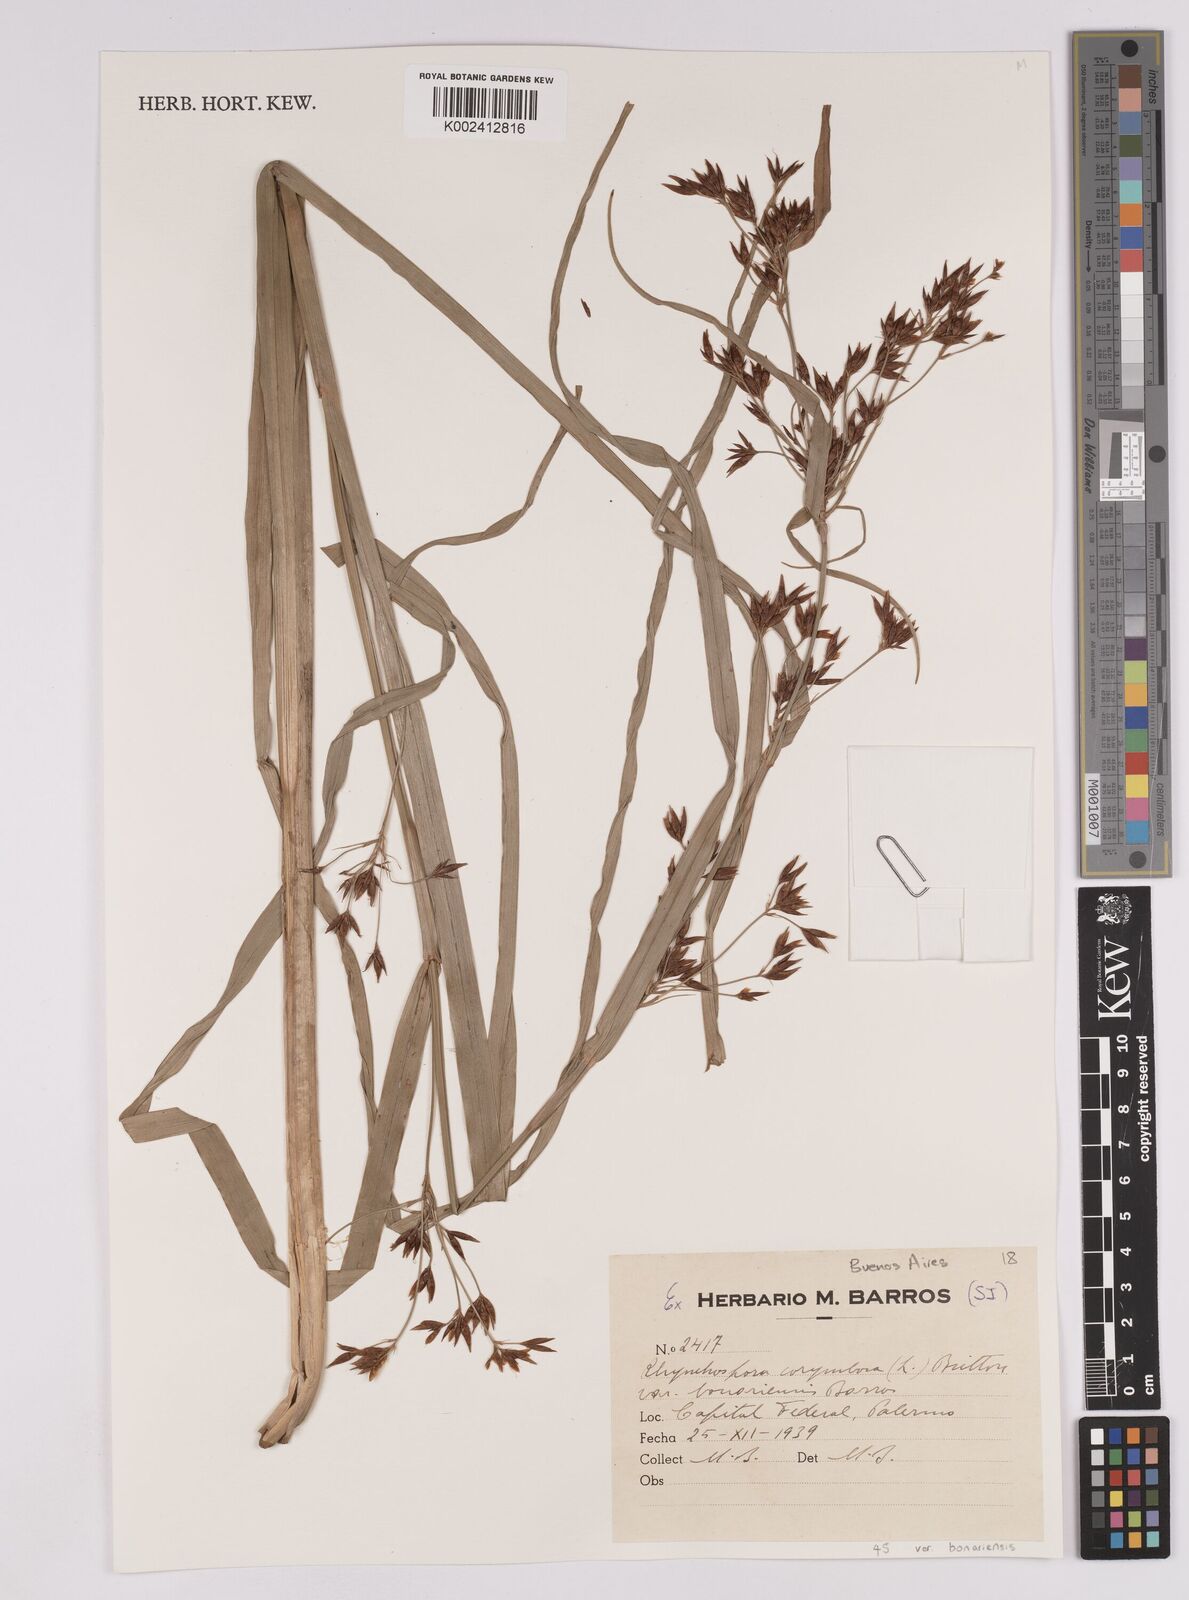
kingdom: Plantae
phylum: Tracheophyta
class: Liliopsida
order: Poales
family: Cyperaceae
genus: Rhynchospora
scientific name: Rhynchospora corymbosa
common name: Golden beak sedge
